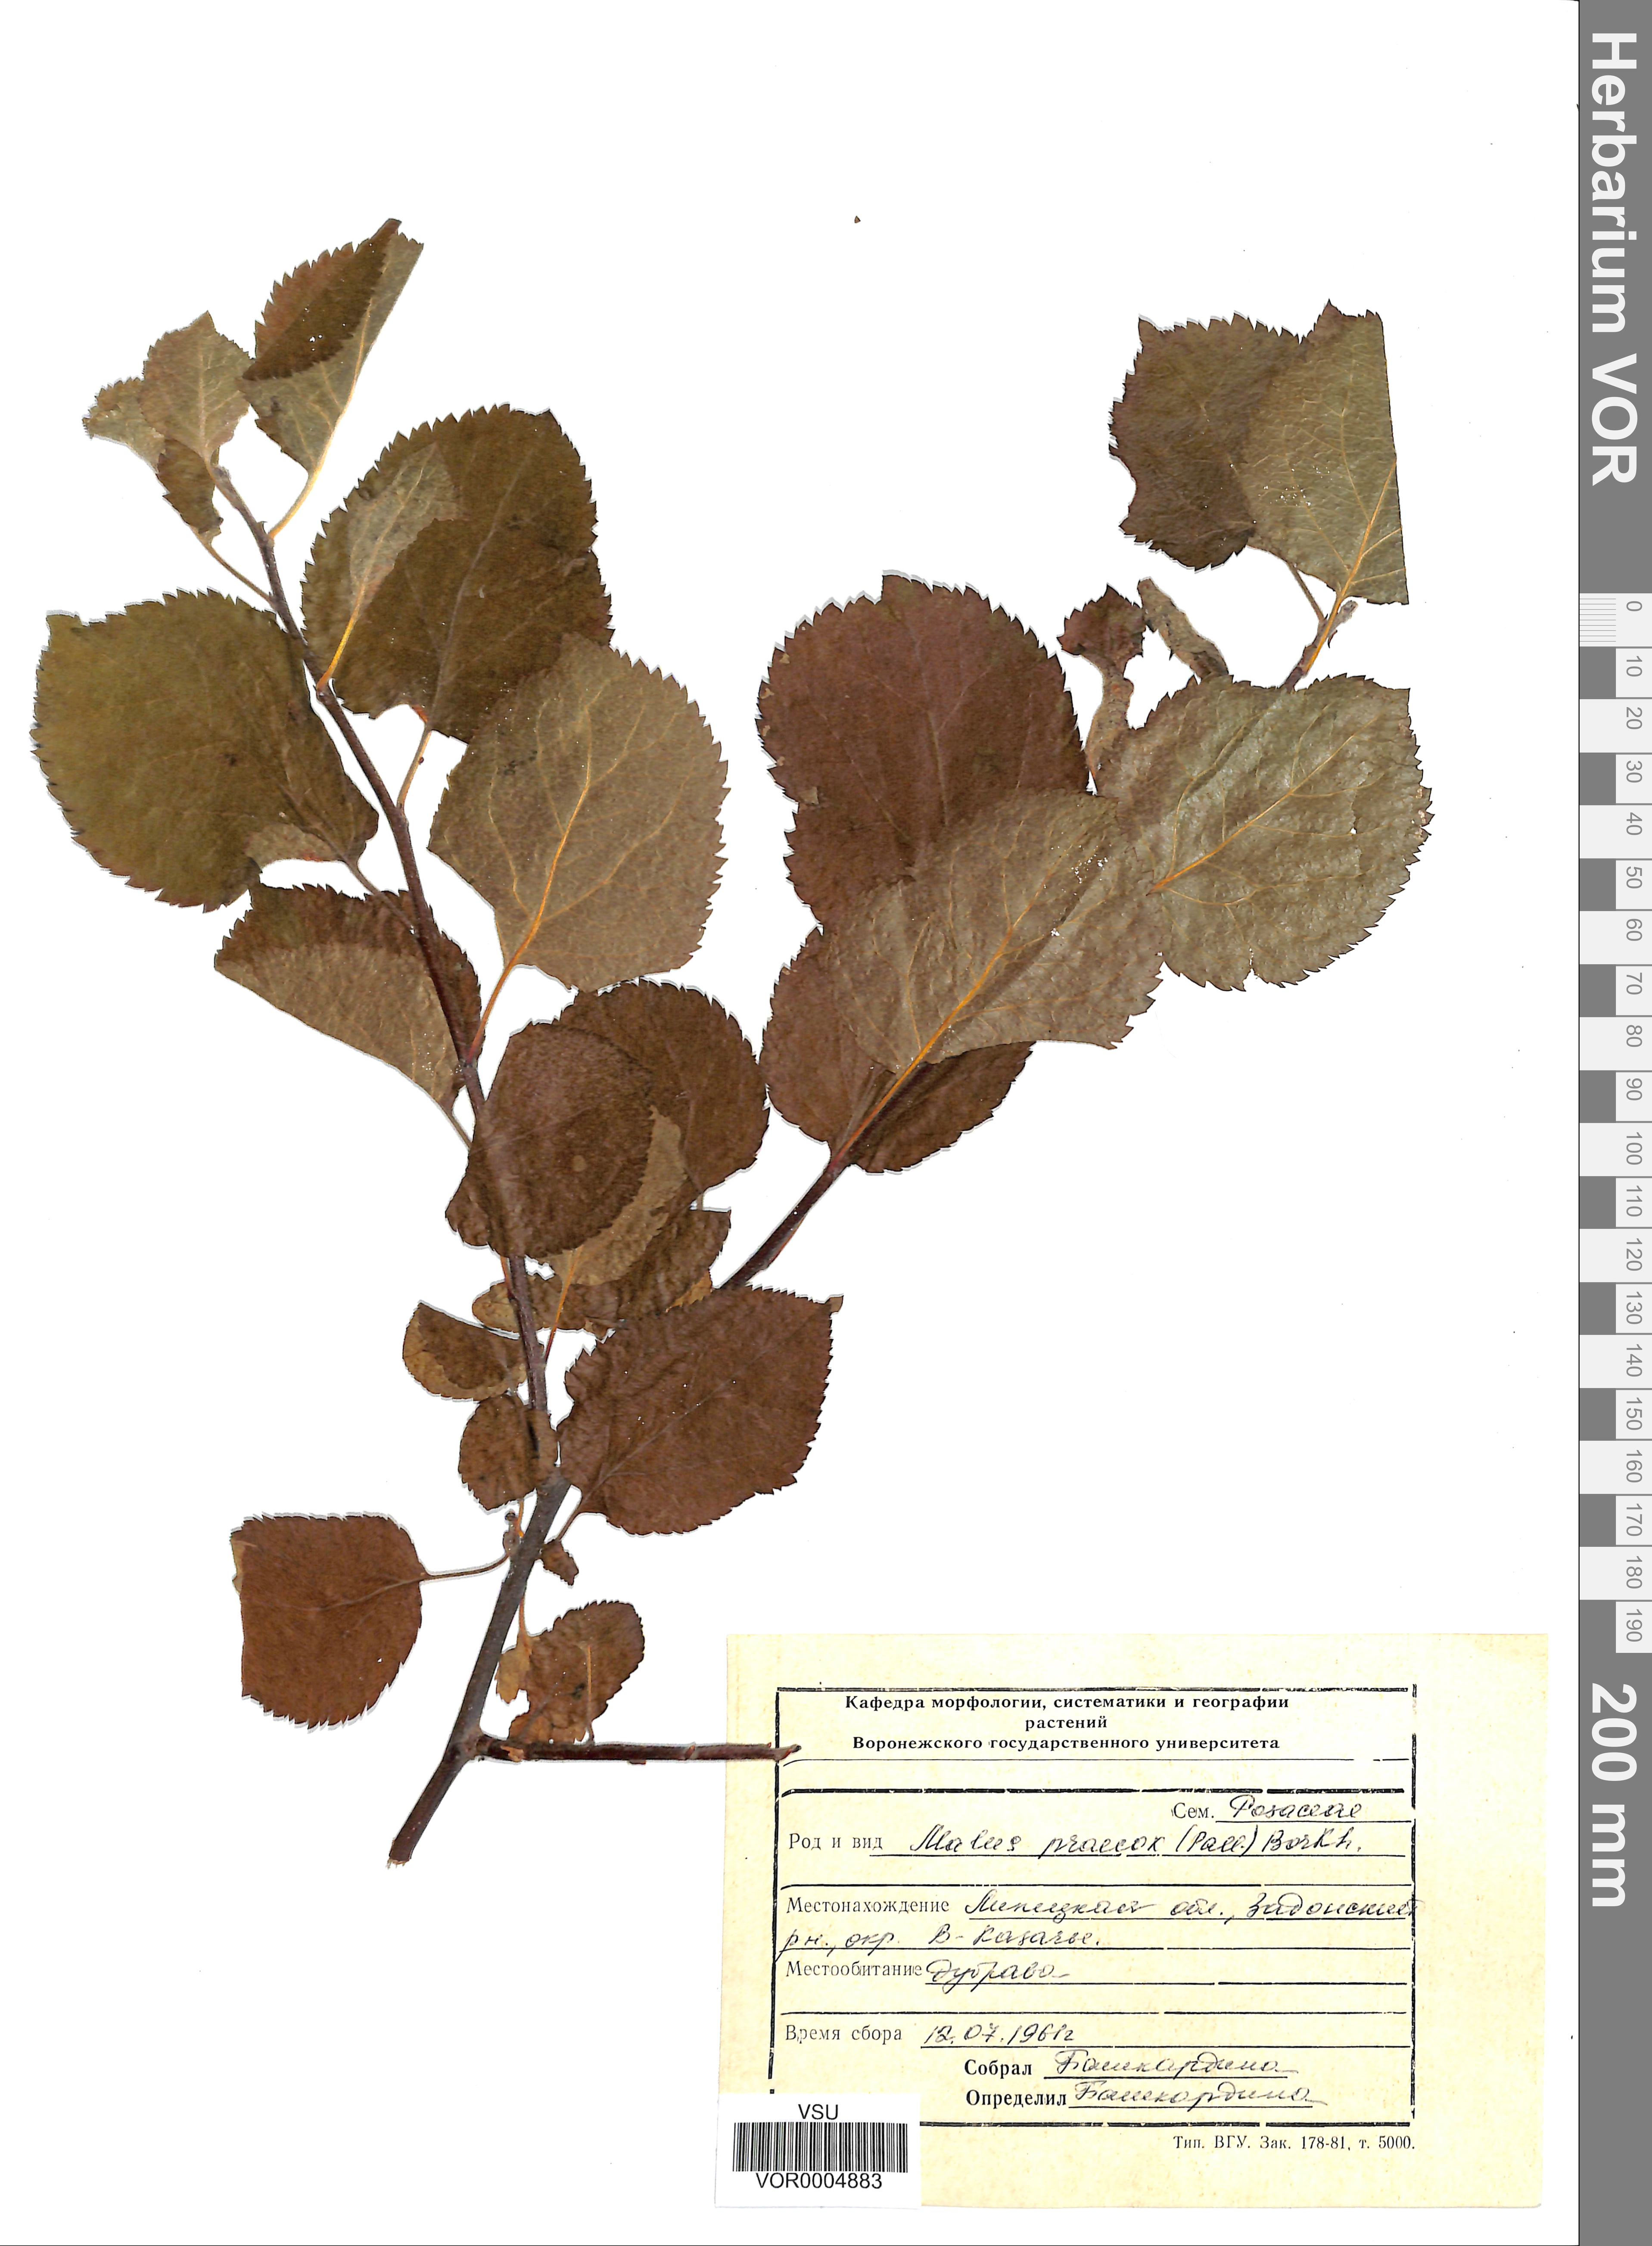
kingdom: Plantae
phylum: Tracheophyta
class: Magnoliopsida
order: Rosales
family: Rosaceae
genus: Malus
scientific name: Malus domestica
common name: Apple
